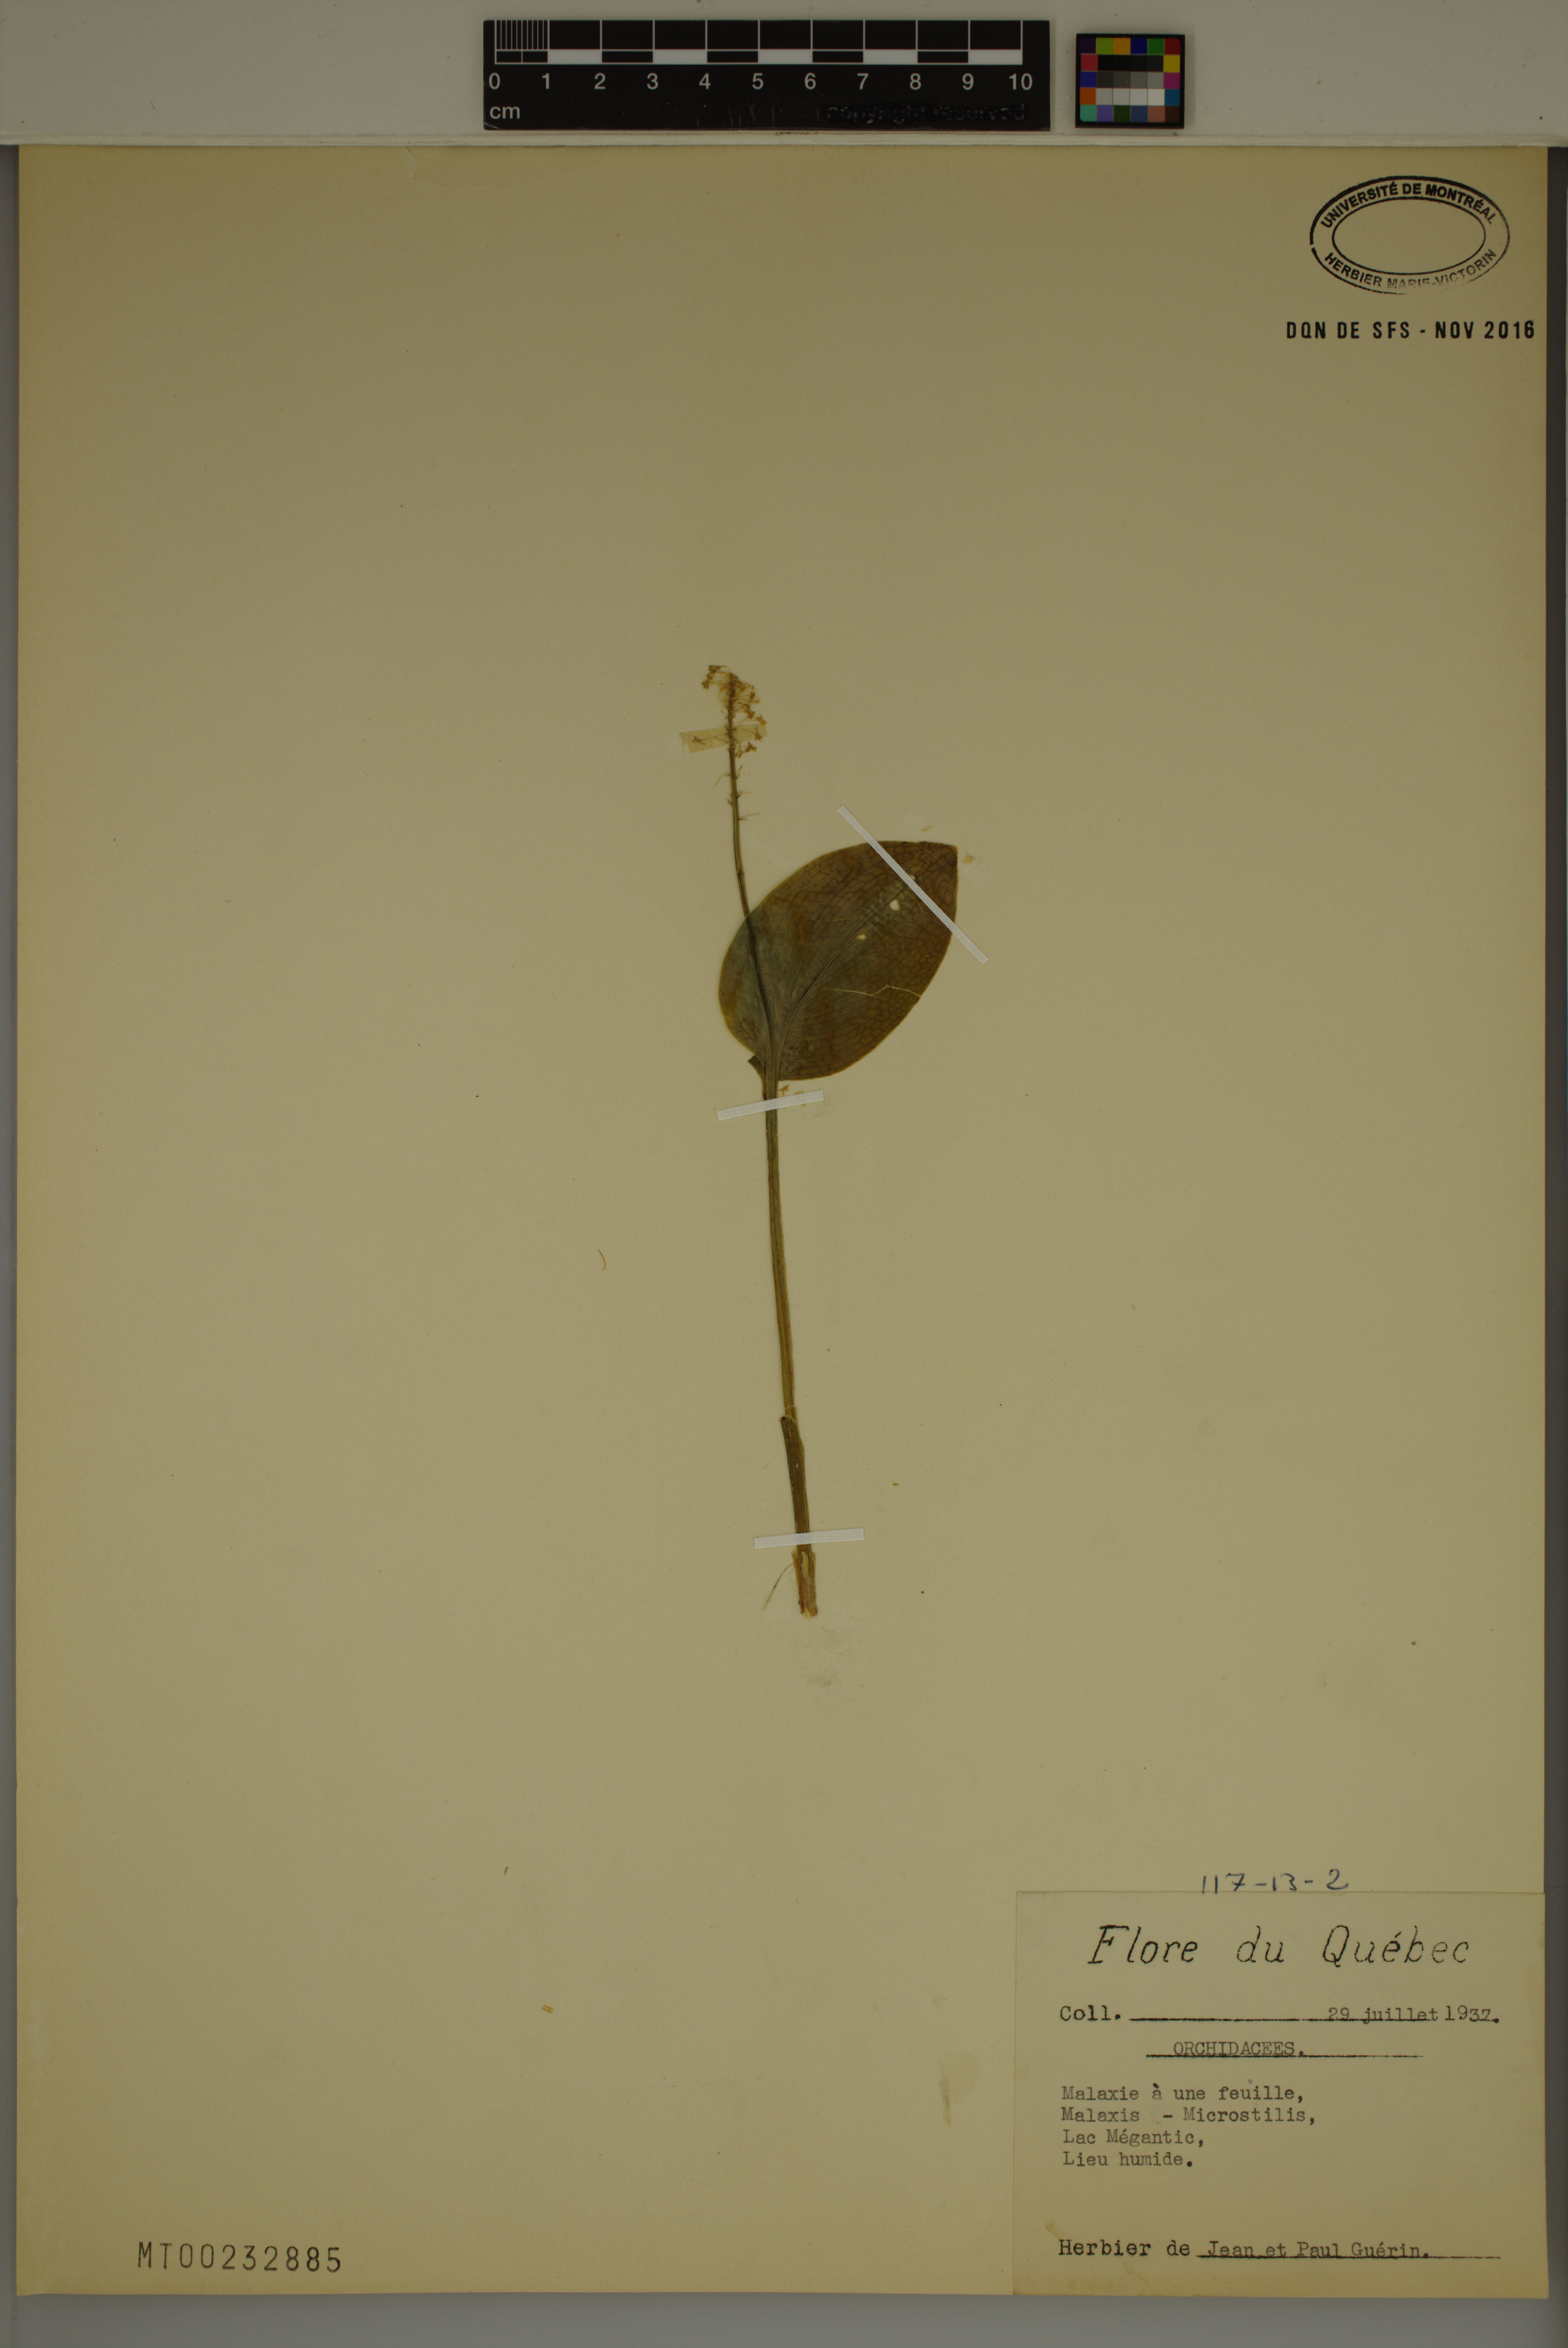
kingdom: Plantae
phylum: Tracheophyta
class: Liliopsida
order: Asparagales
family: Orchidaceae
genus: Malaxis
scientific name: Malaxis
